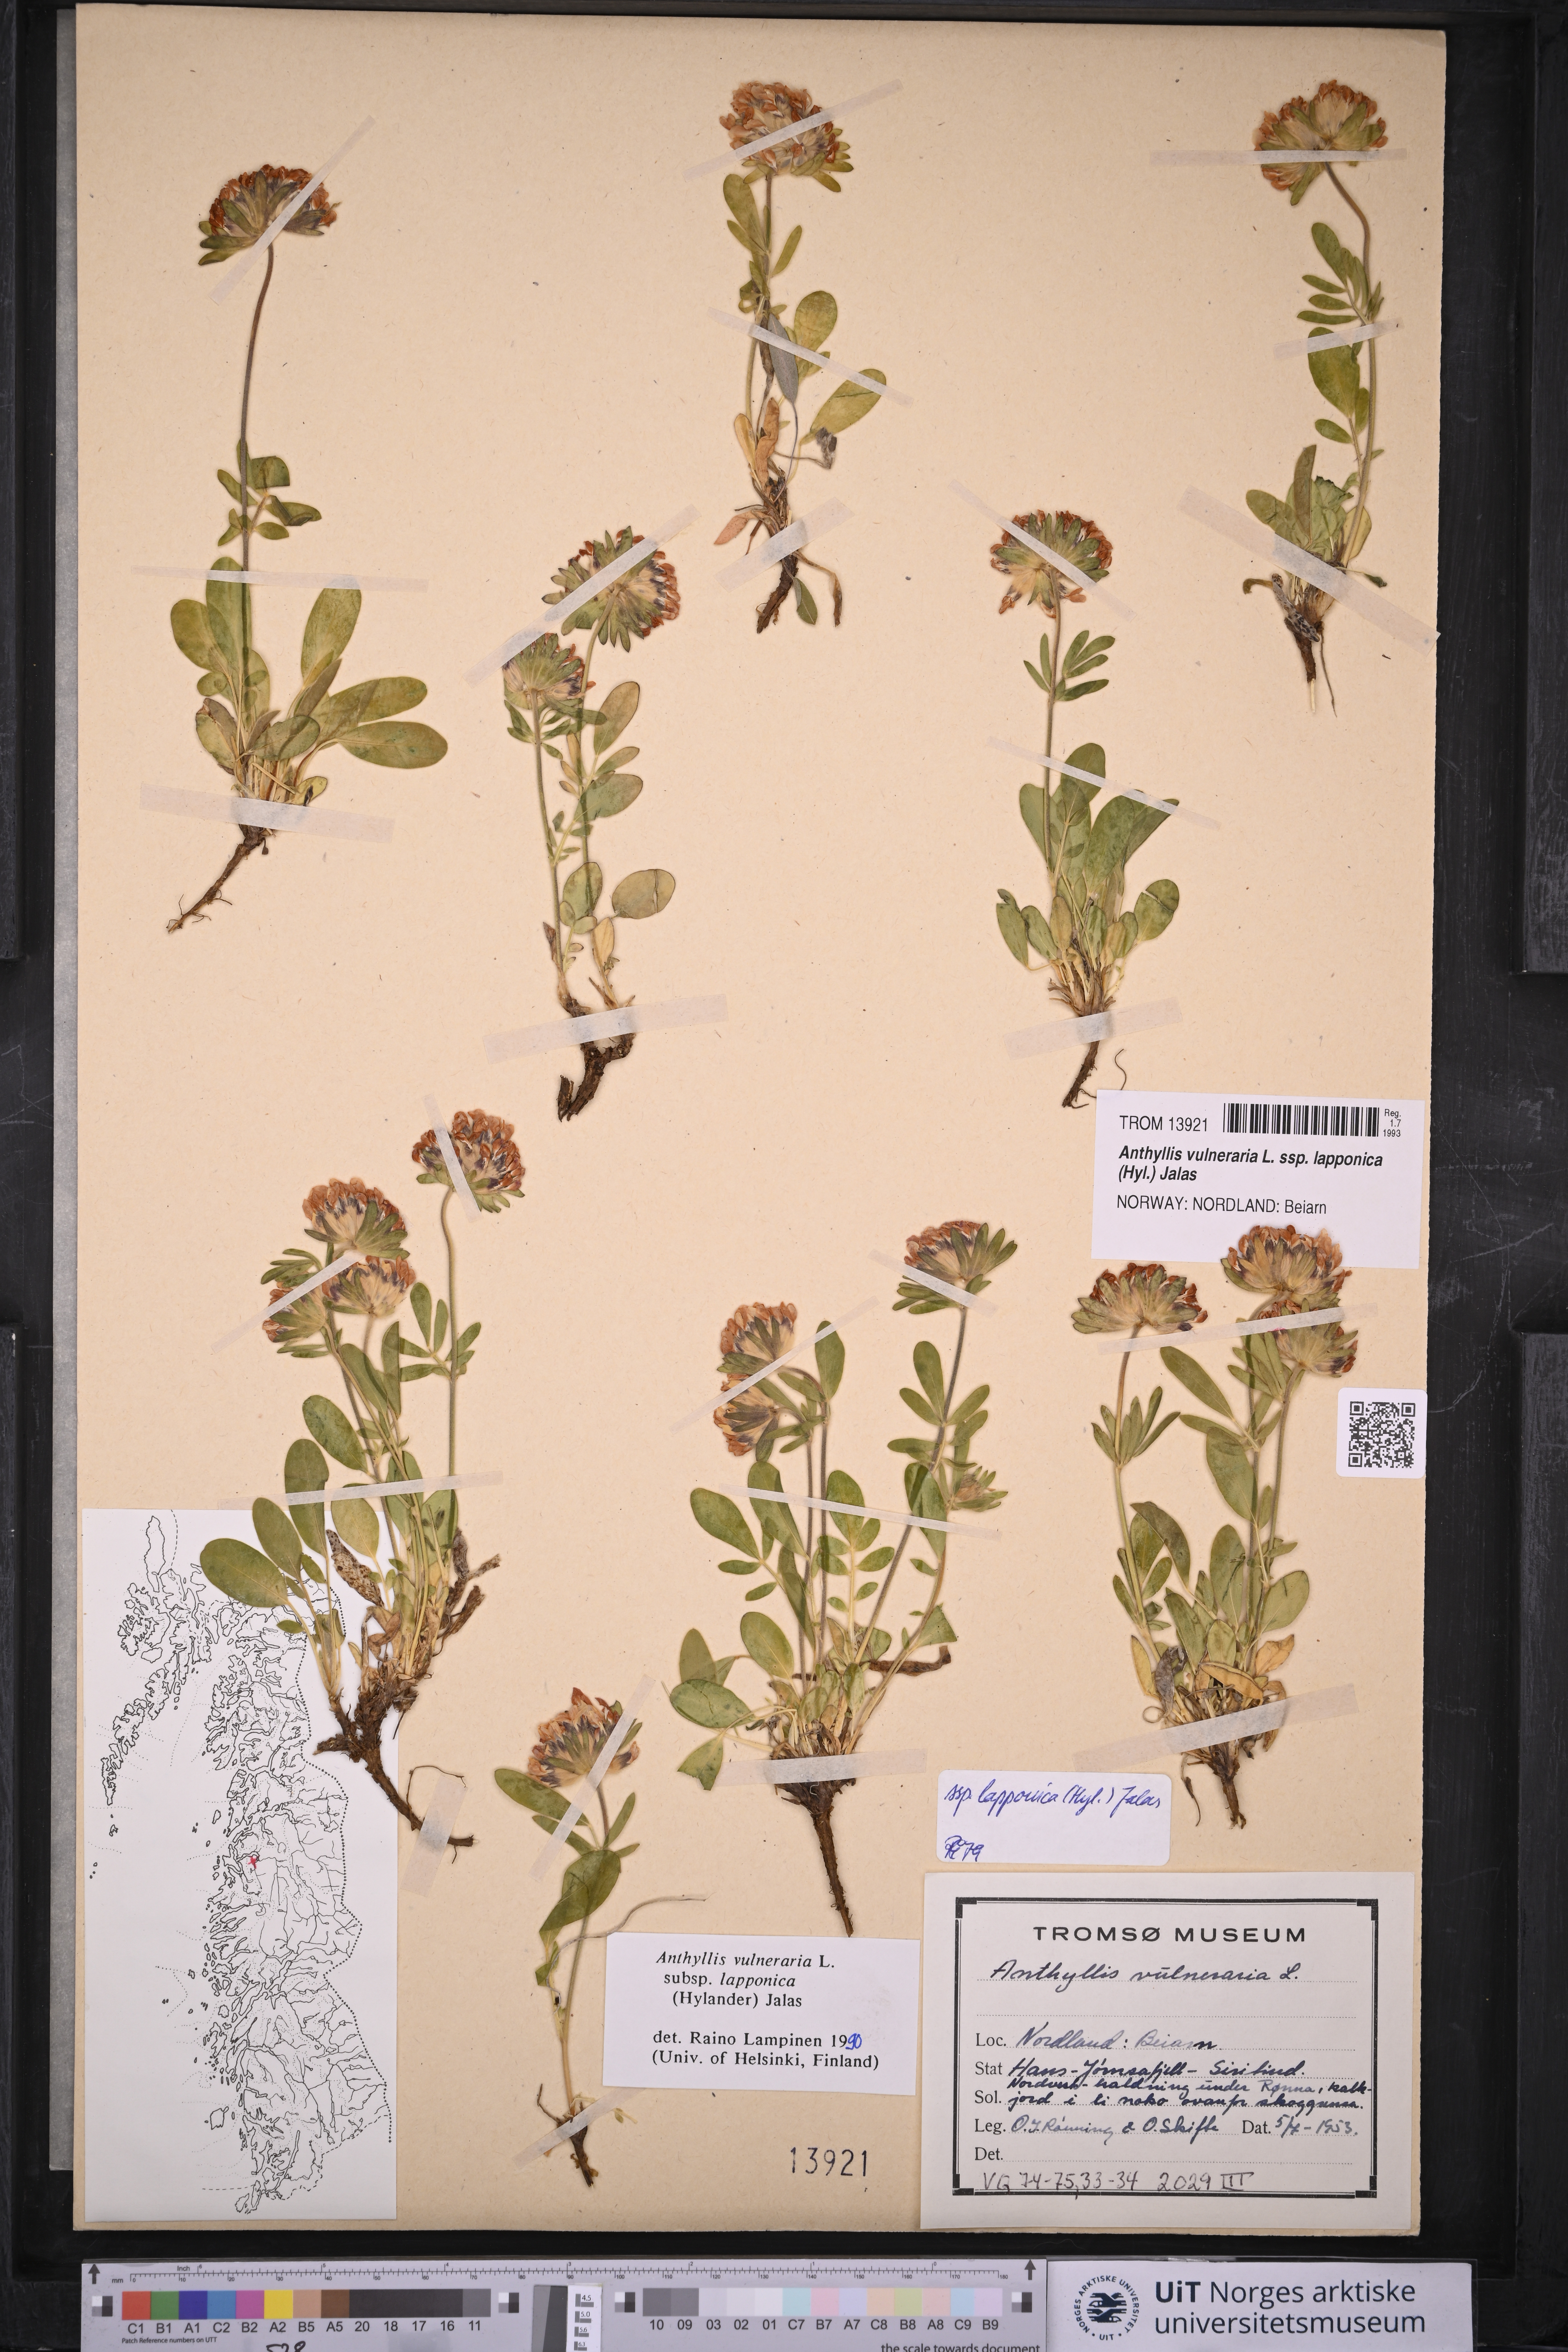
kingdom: Plantae
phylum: Tracheophyta
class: Magnoliopsida
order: Fabales
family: Fabaceae
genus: Anthyllis
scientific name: Anthyllis vulneraria
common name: Kidney vetch
